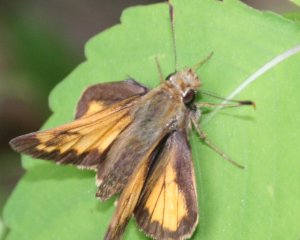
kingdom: Animalia
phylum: Arthropoda
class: Insecta
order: Lepidoptera
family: Hesperiidae
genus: Lon
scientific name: Lon hobomok
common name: Hobomok Skipper
